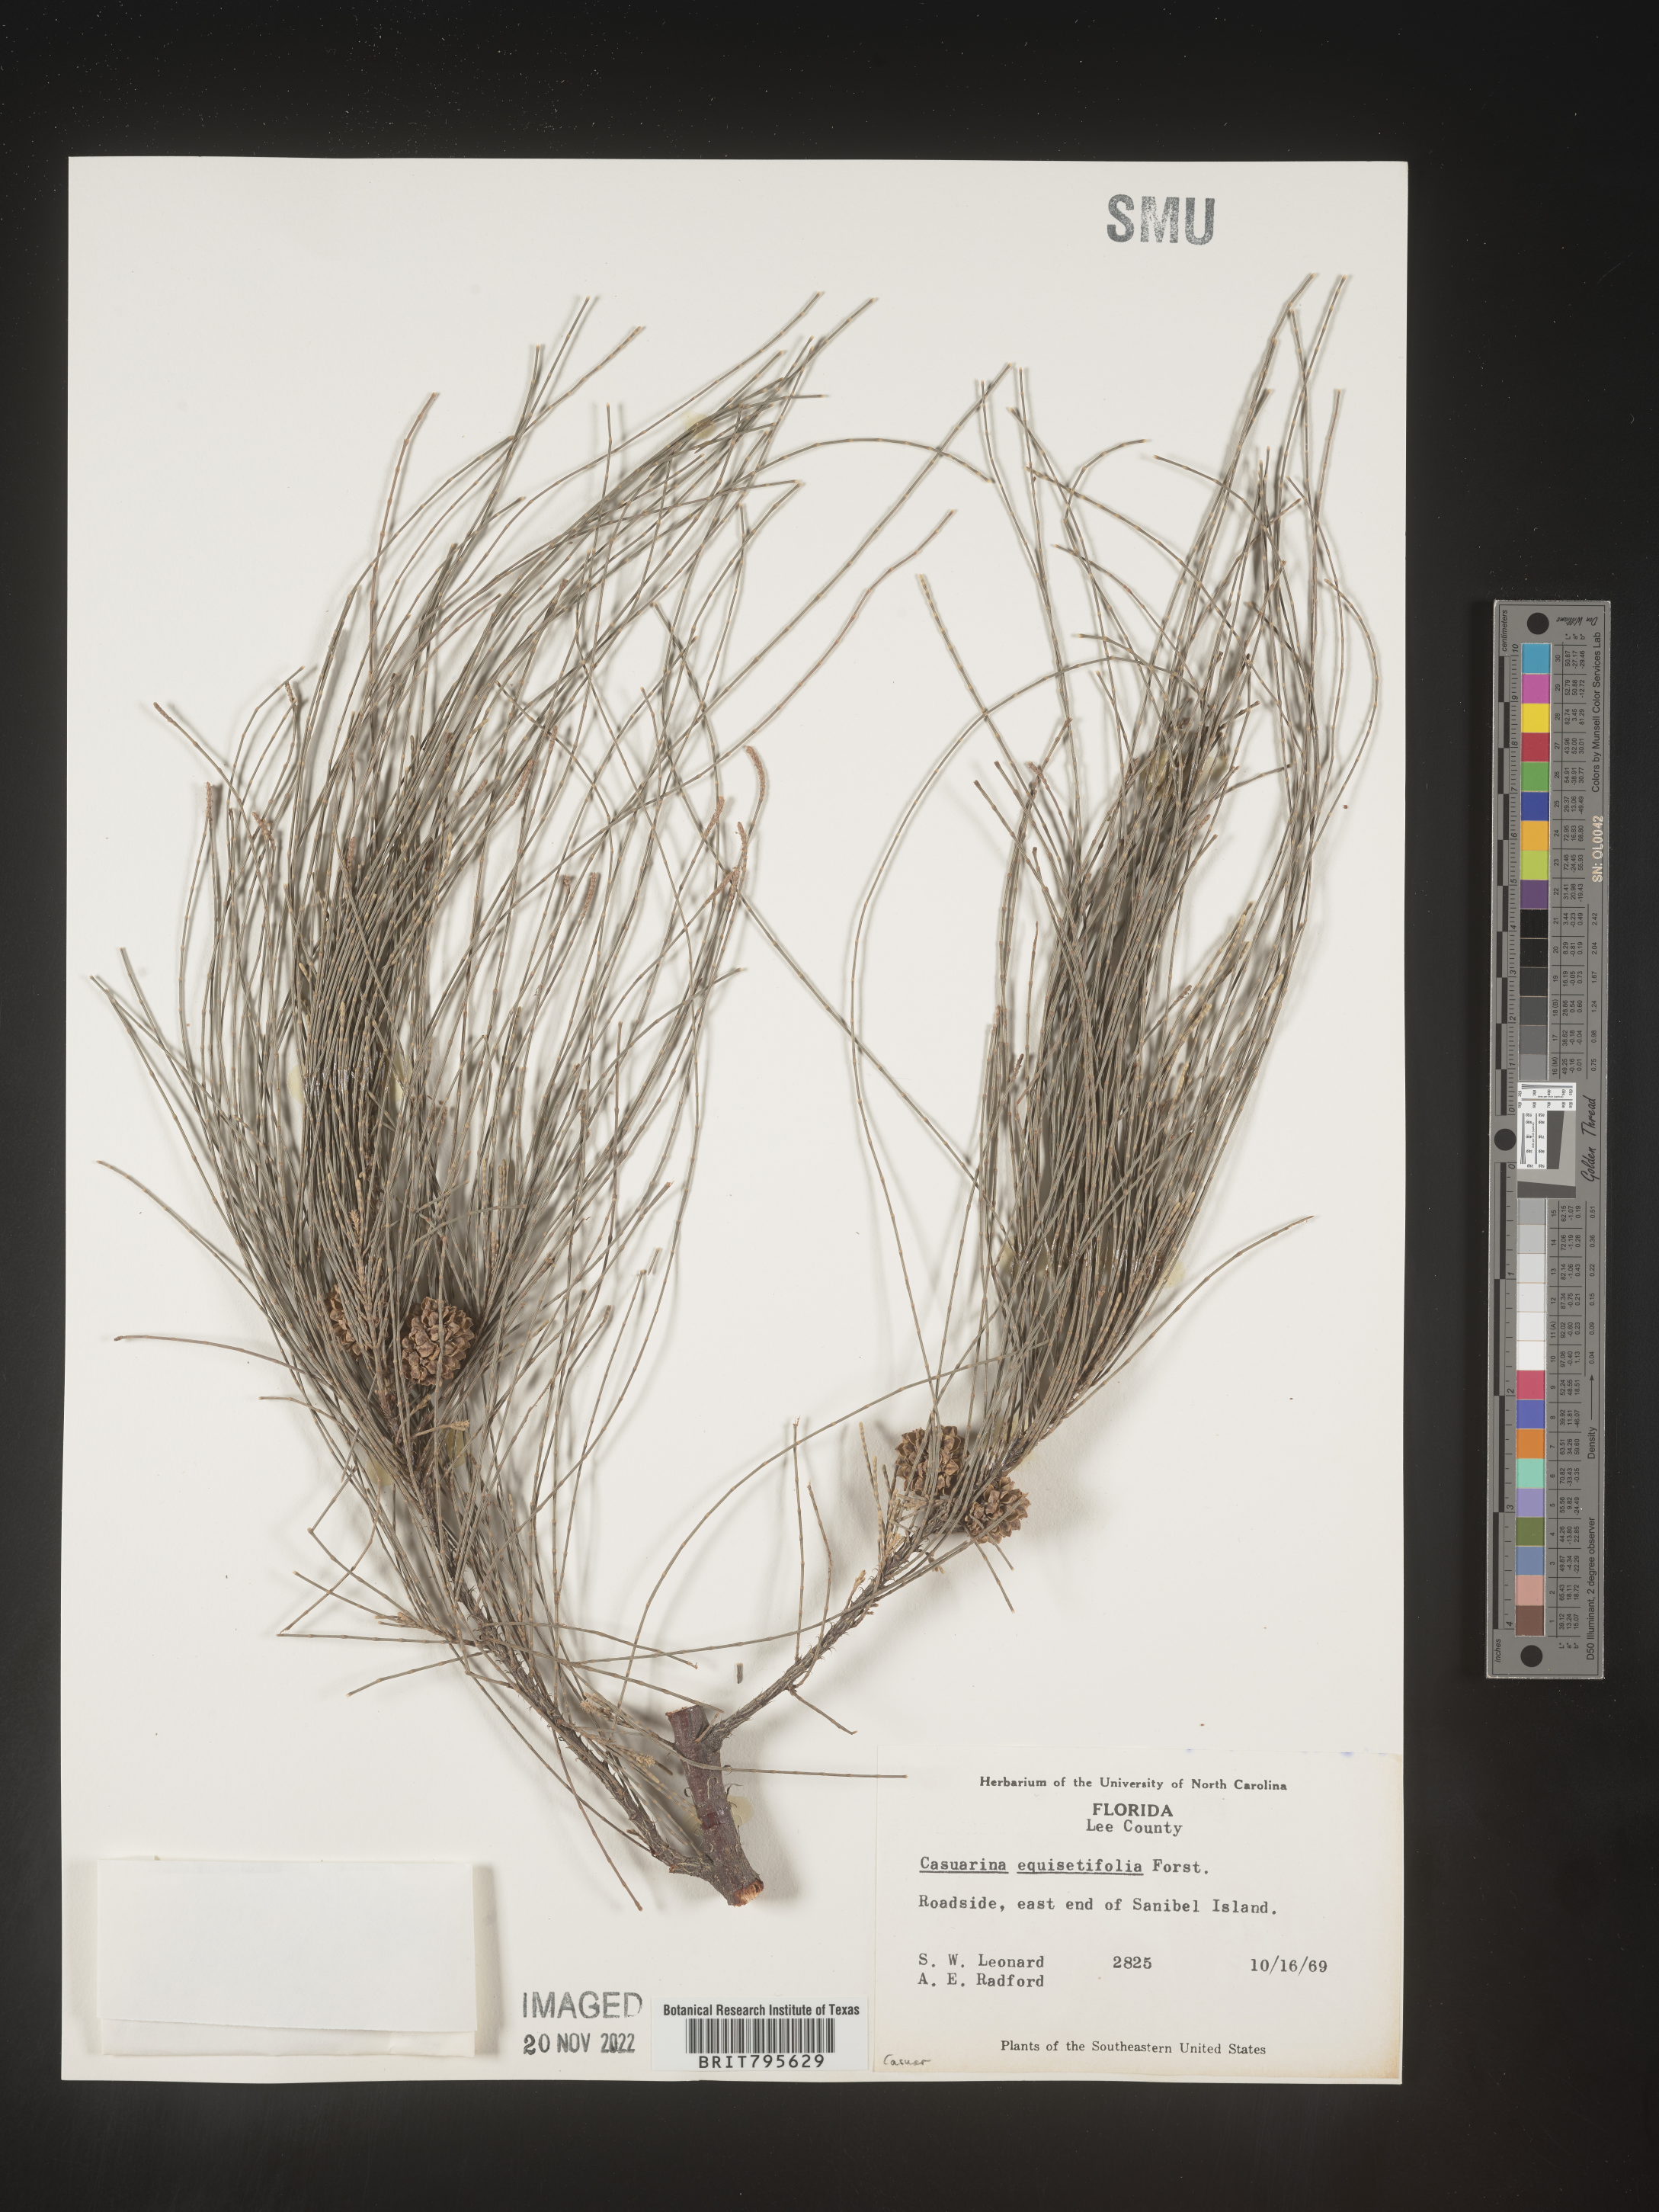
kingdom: Plantae
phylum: Tracheophyta
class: Magnoliopsida
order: Fagales
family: Casuarinaceae
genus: Casuarina
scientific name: Casuarina equisetifolia
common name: Beach sheoak
